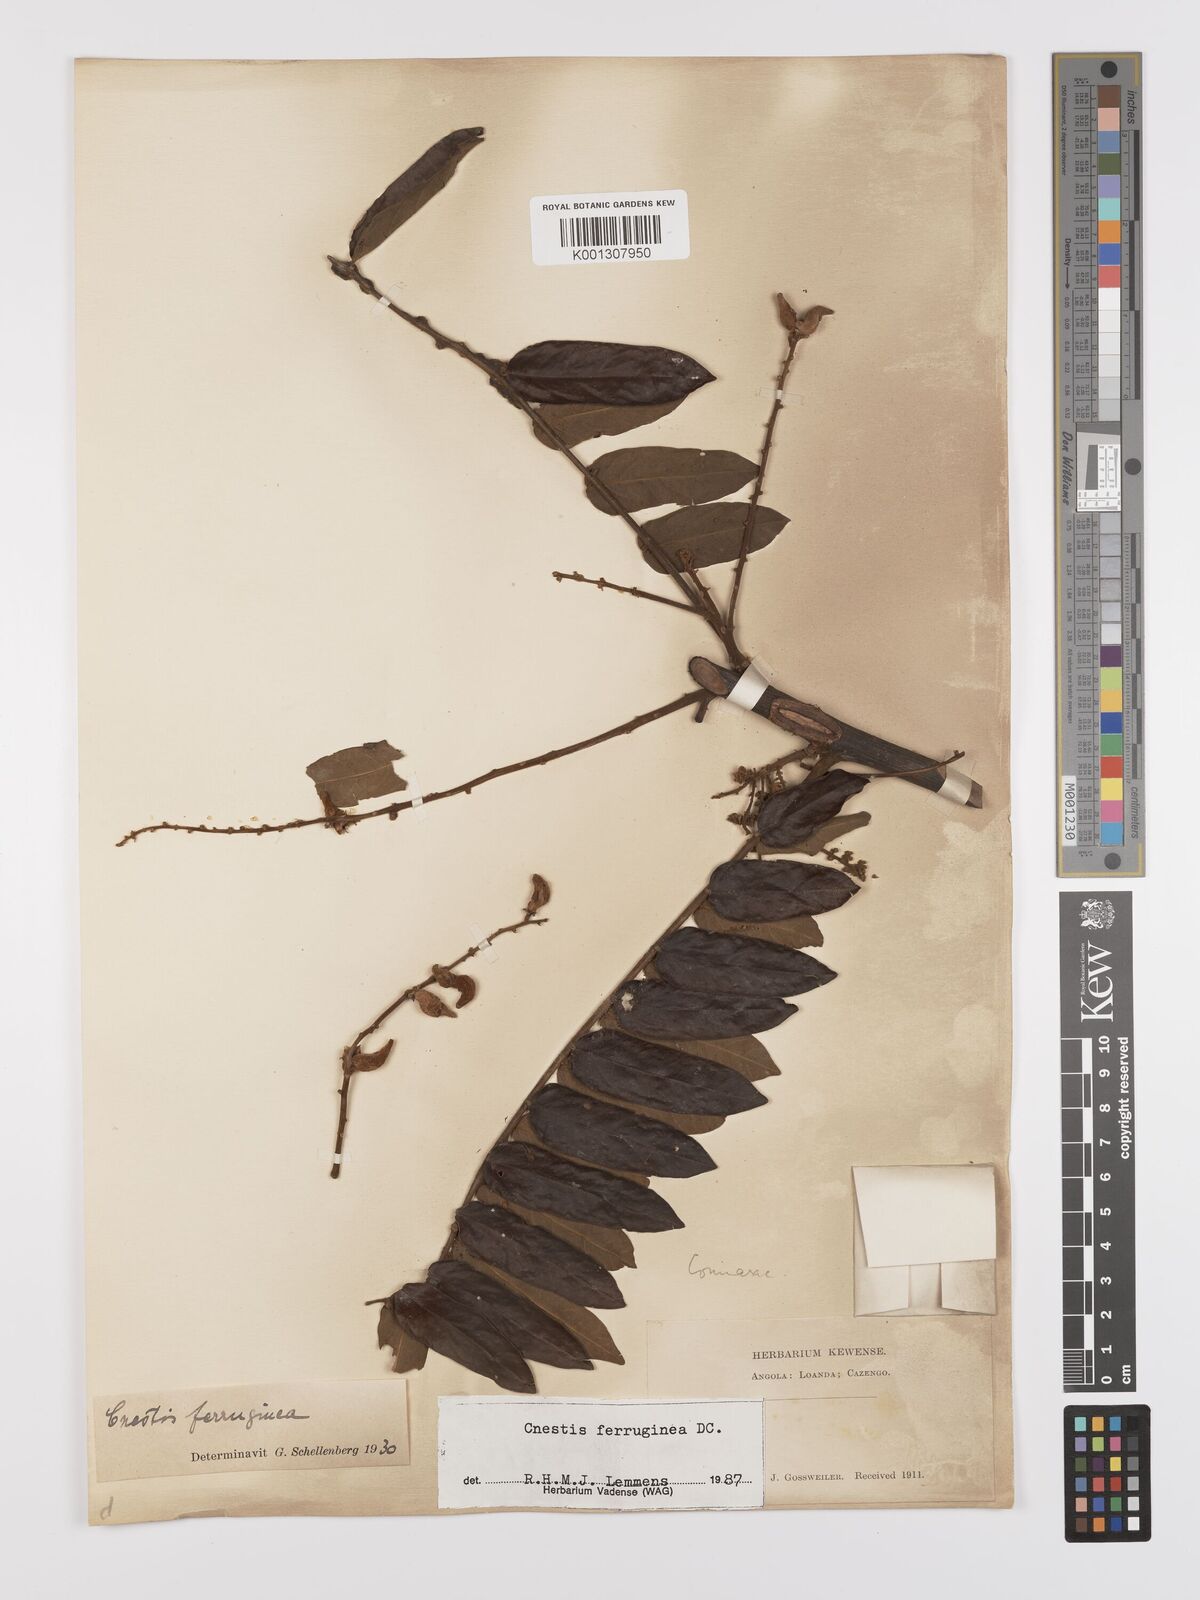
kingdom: Plantae
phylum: Tracheophyta
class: Magnoliopsida
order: Oxalidales
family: Connaraceae
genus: Cnestis
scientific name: Cnestis ferruginea
